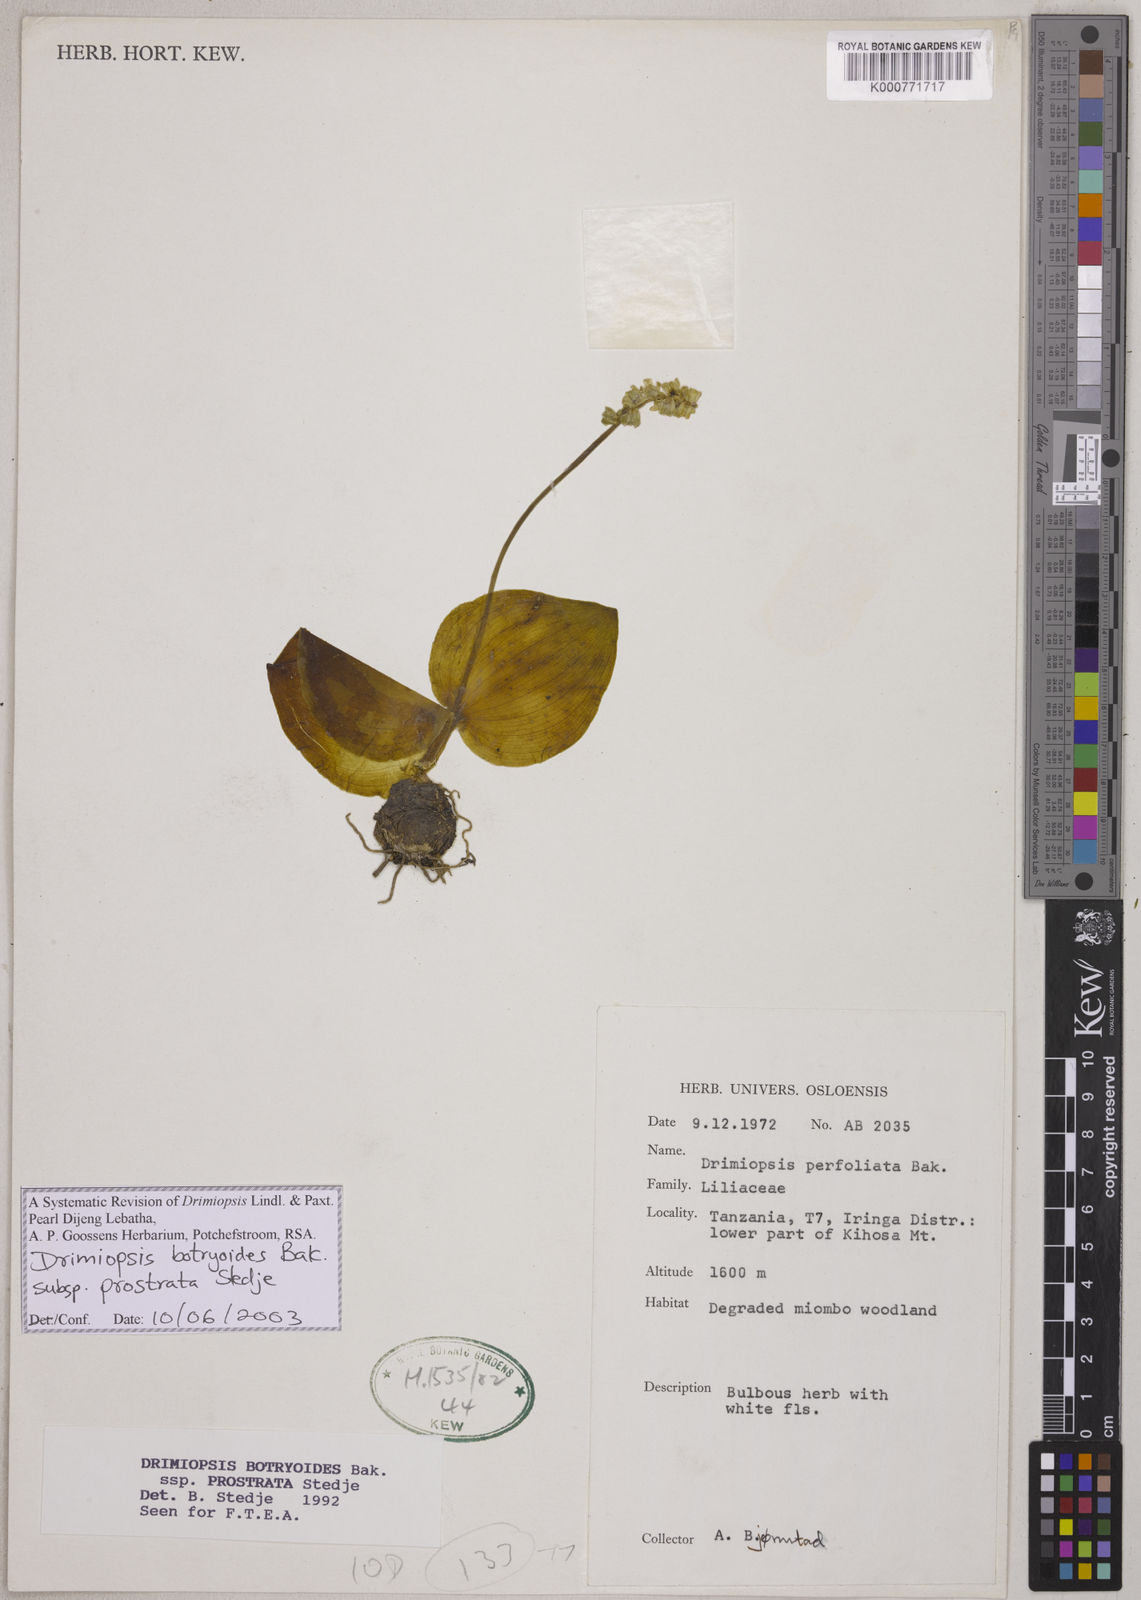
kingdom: Plantae
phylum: Tracheophyta
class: Liliopsida
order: Asparagales
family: Asparagaceae
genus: Drimiopsis
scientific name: Drimiopsis botryoides
